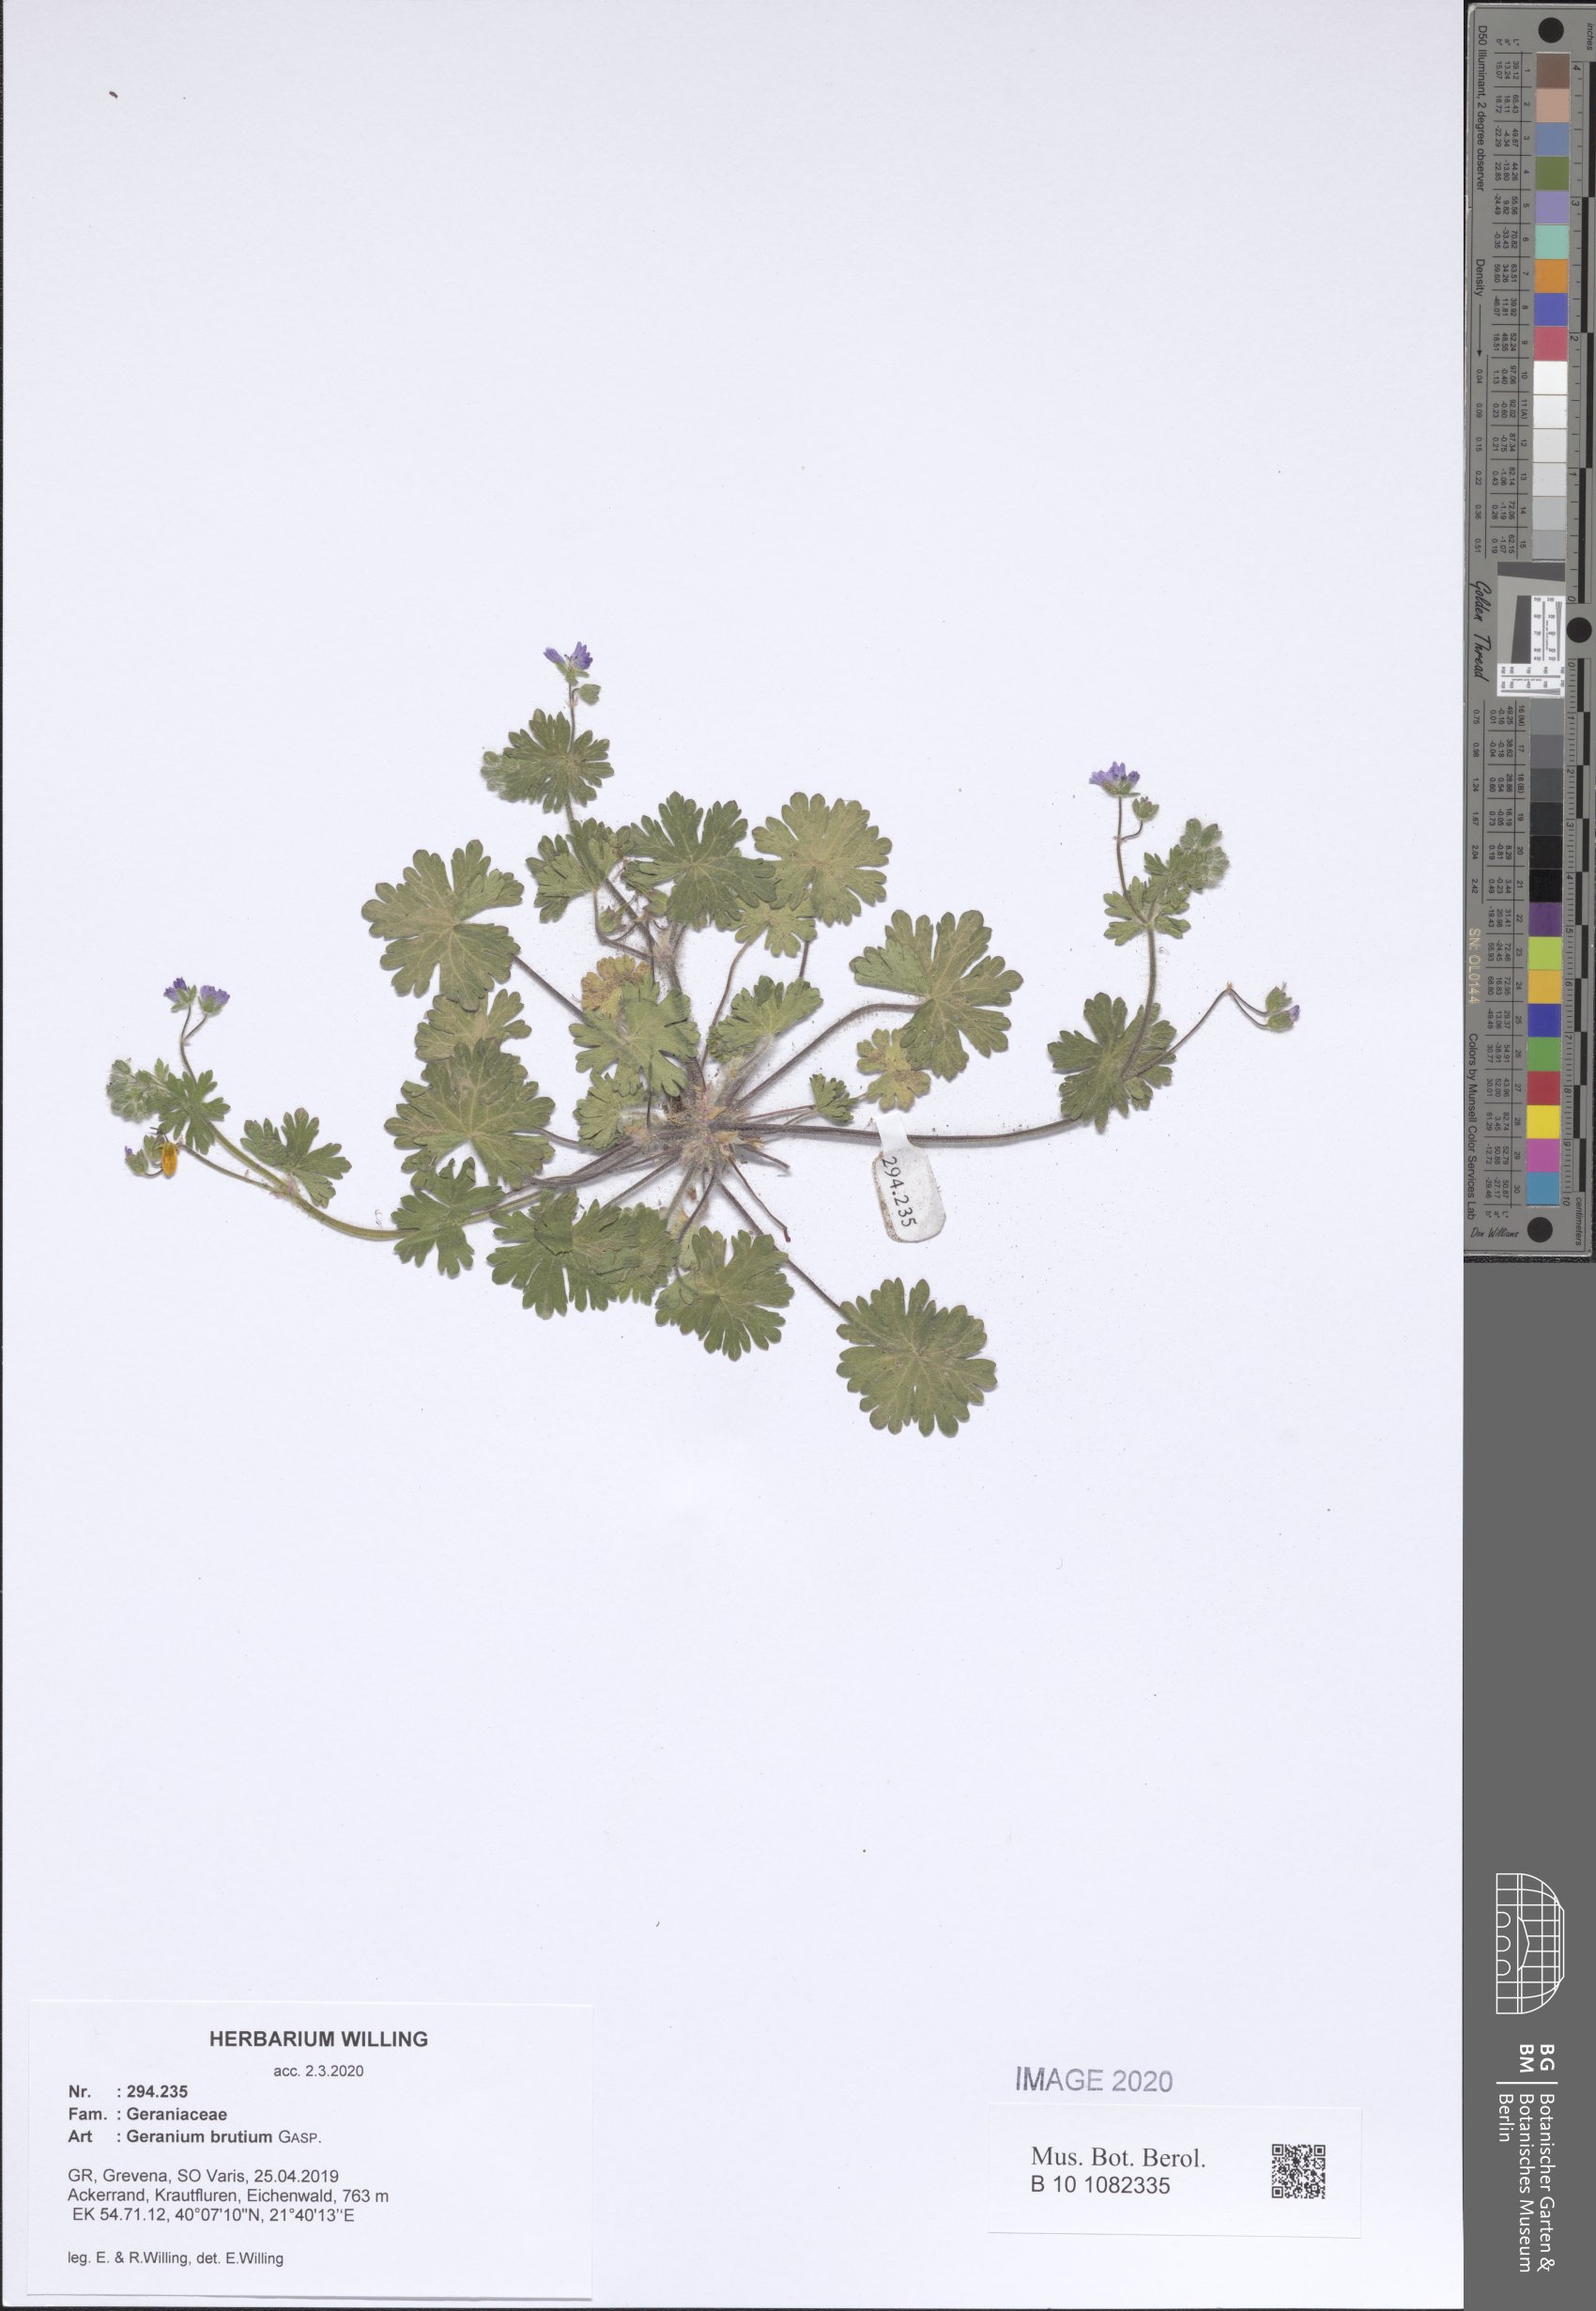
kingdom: Plantae
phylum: Tracheophyta
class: Magnoliopsida
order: Geraniales
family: Geraniaceae
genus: Geranium
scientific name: Geranium molle
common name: Dove's-foot crane's-bill
